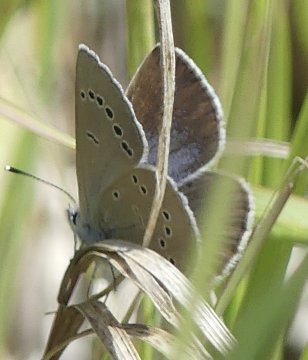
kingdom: Animalia
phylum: Arthropoda
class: Insecta
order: Lepidoptera
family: Lycaenidae
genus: Glaucopsyche
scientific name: Glaucopsyche lygdamus
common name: Silvery Blue
